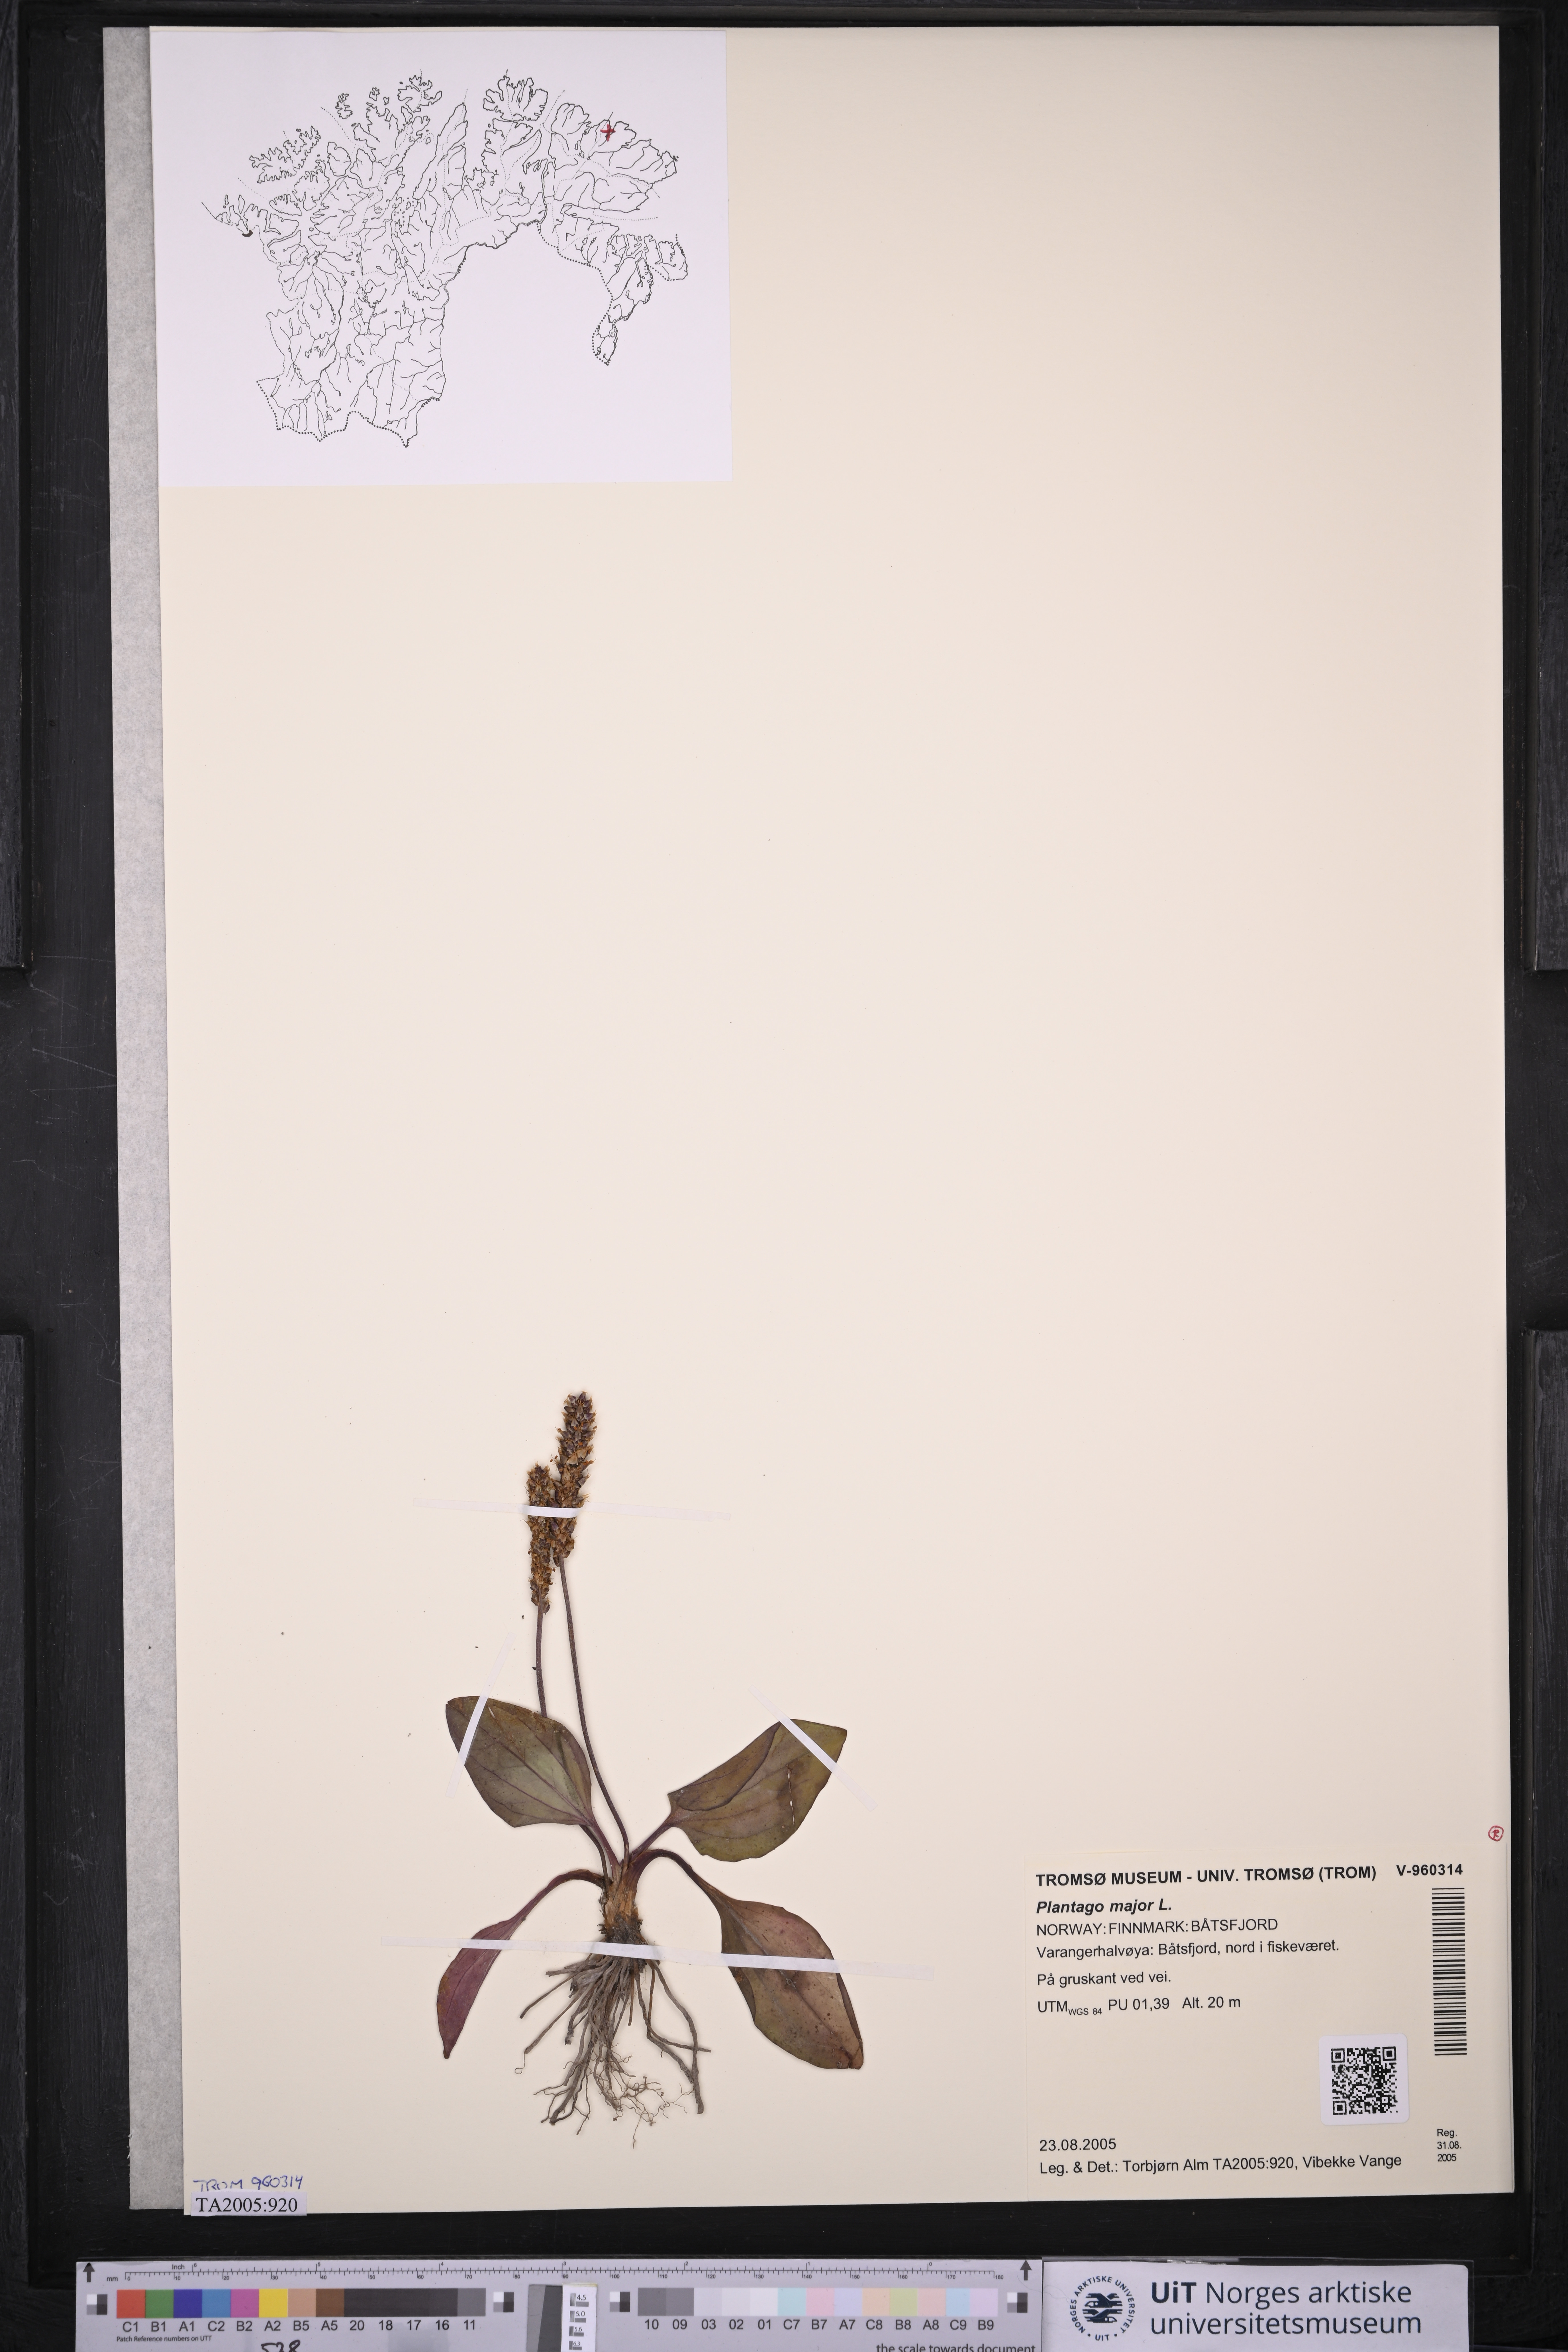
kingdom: Plantae
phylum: Tracheophyta
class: Magnoliopsida
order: Lamiales
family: Plantaginaceae
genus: Plantago
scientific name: Plantago major
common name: Common plantain
